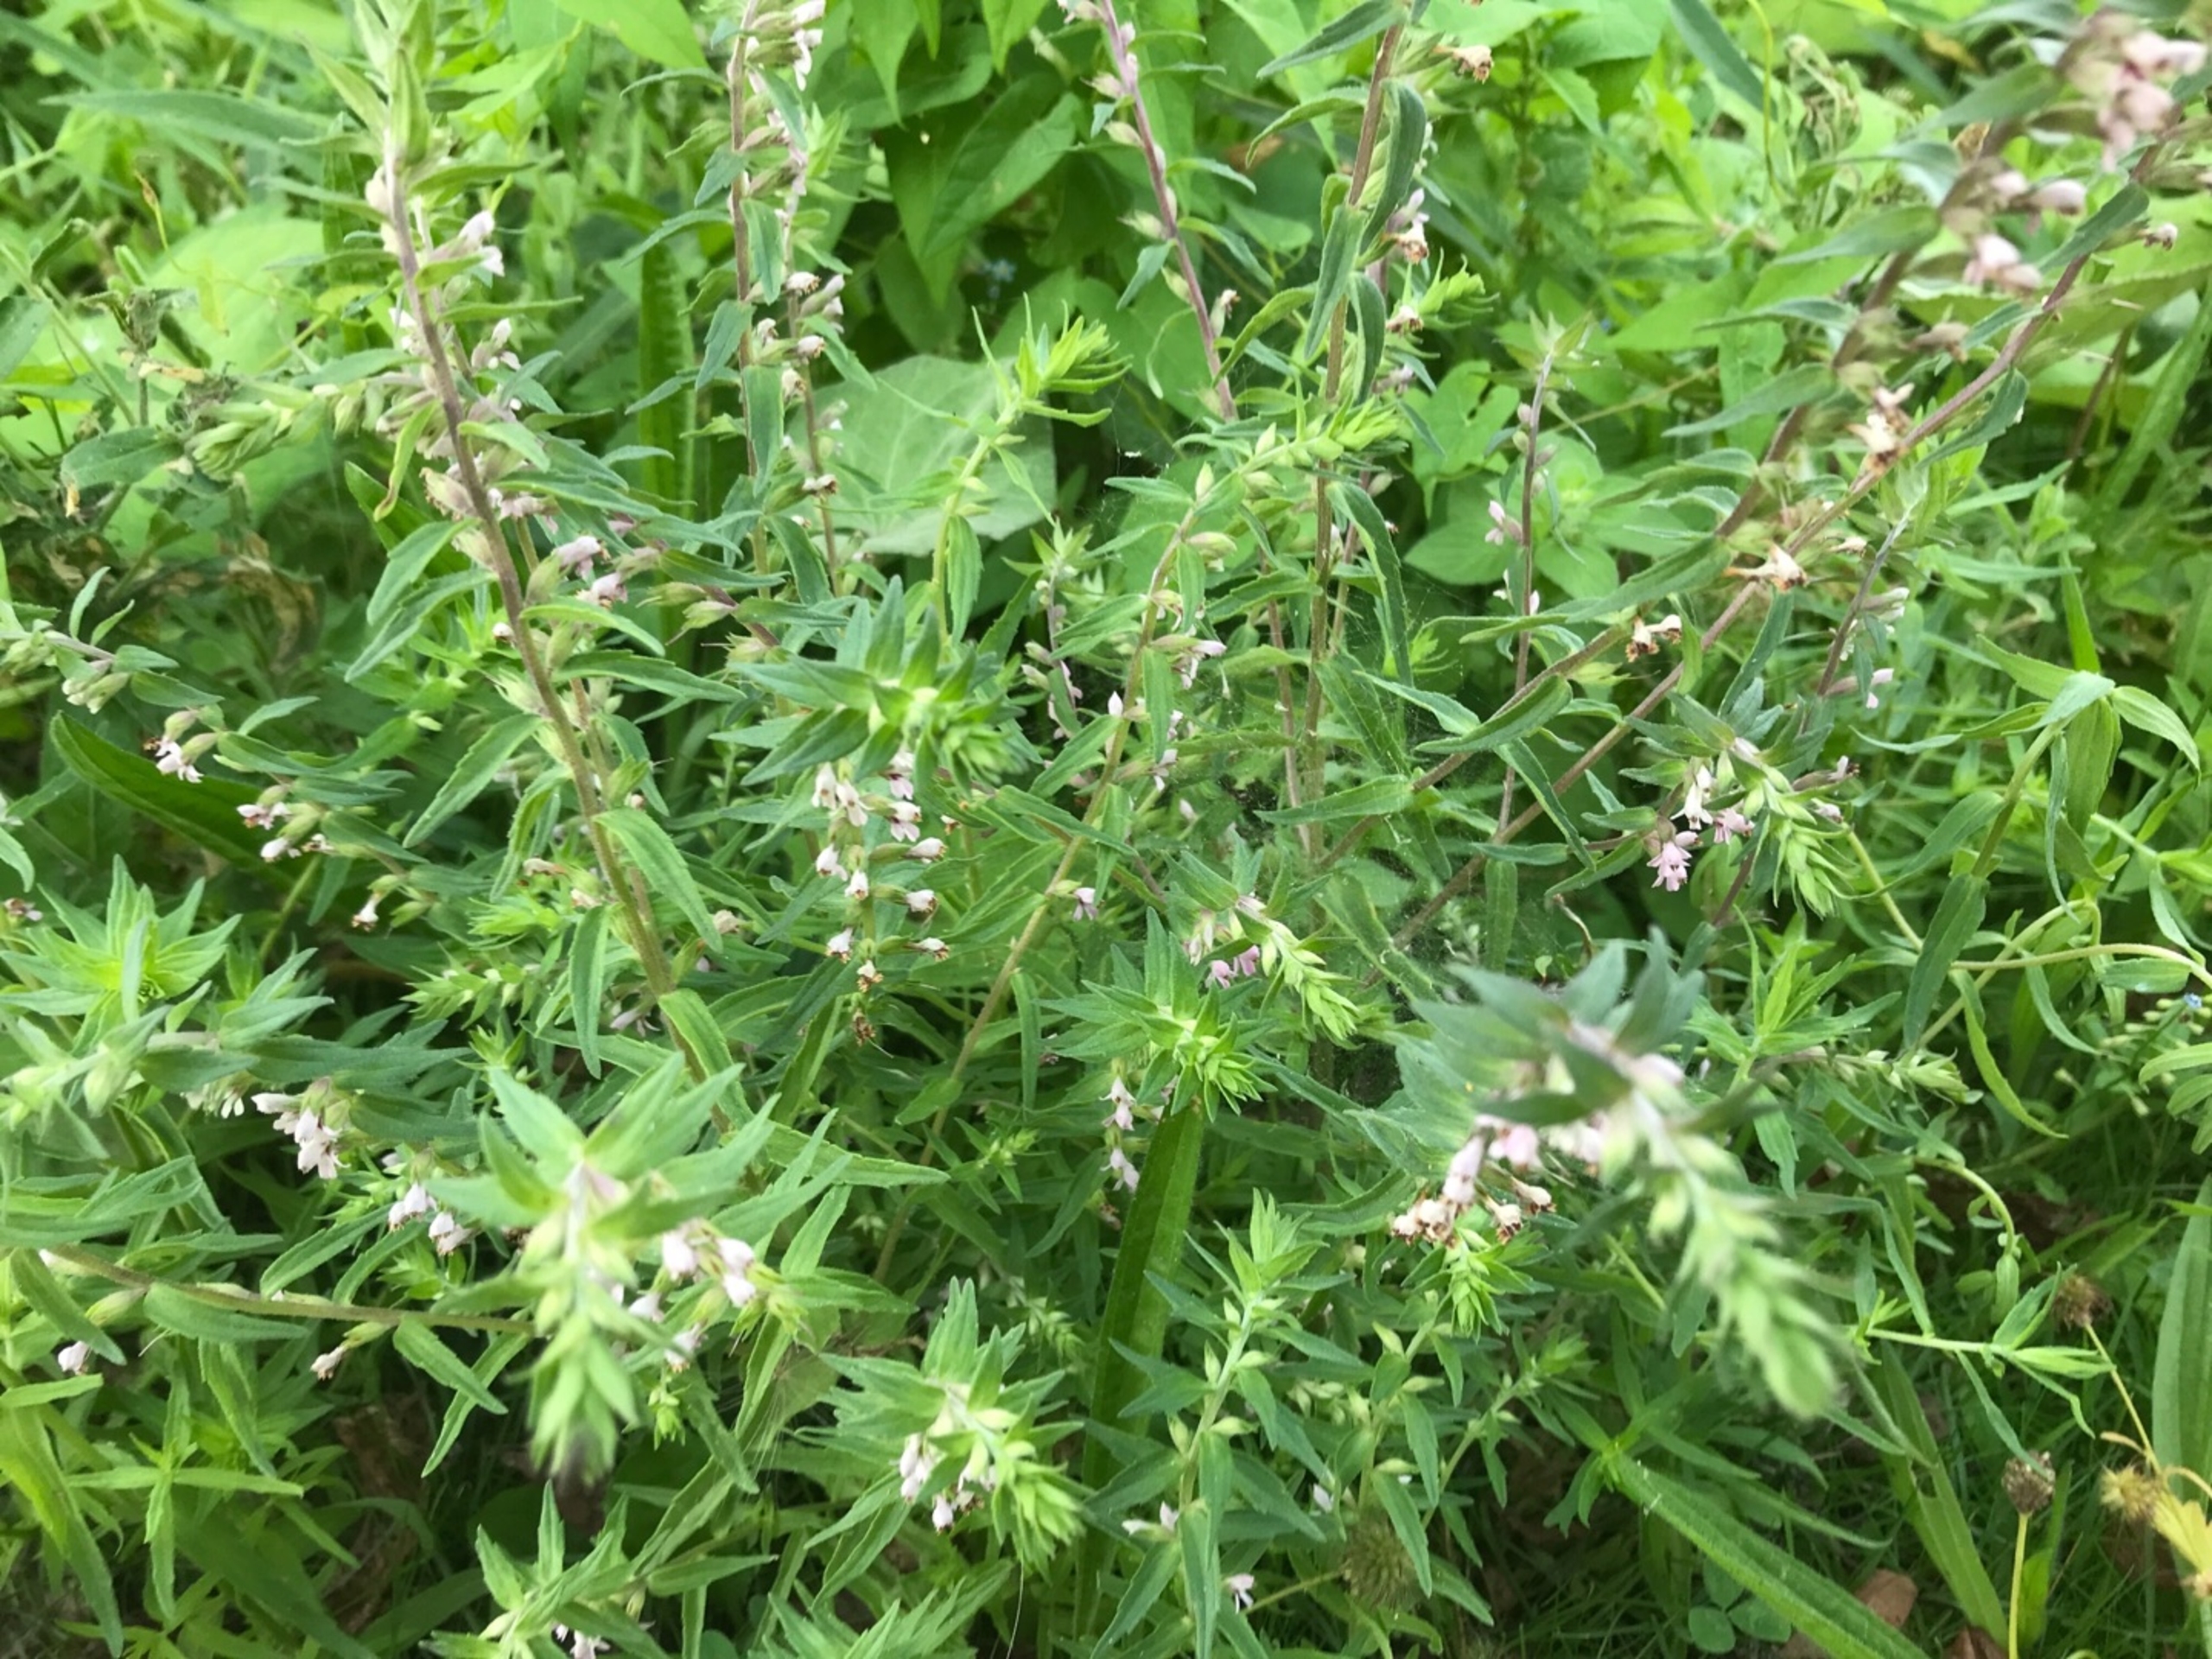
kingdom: Plantae
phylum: Tracheophyta
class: Magnoliopsida
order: Lamiales
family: Orobanchaceae
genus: Odontites
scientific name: Odontites vernus
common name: Mark-rødtop
